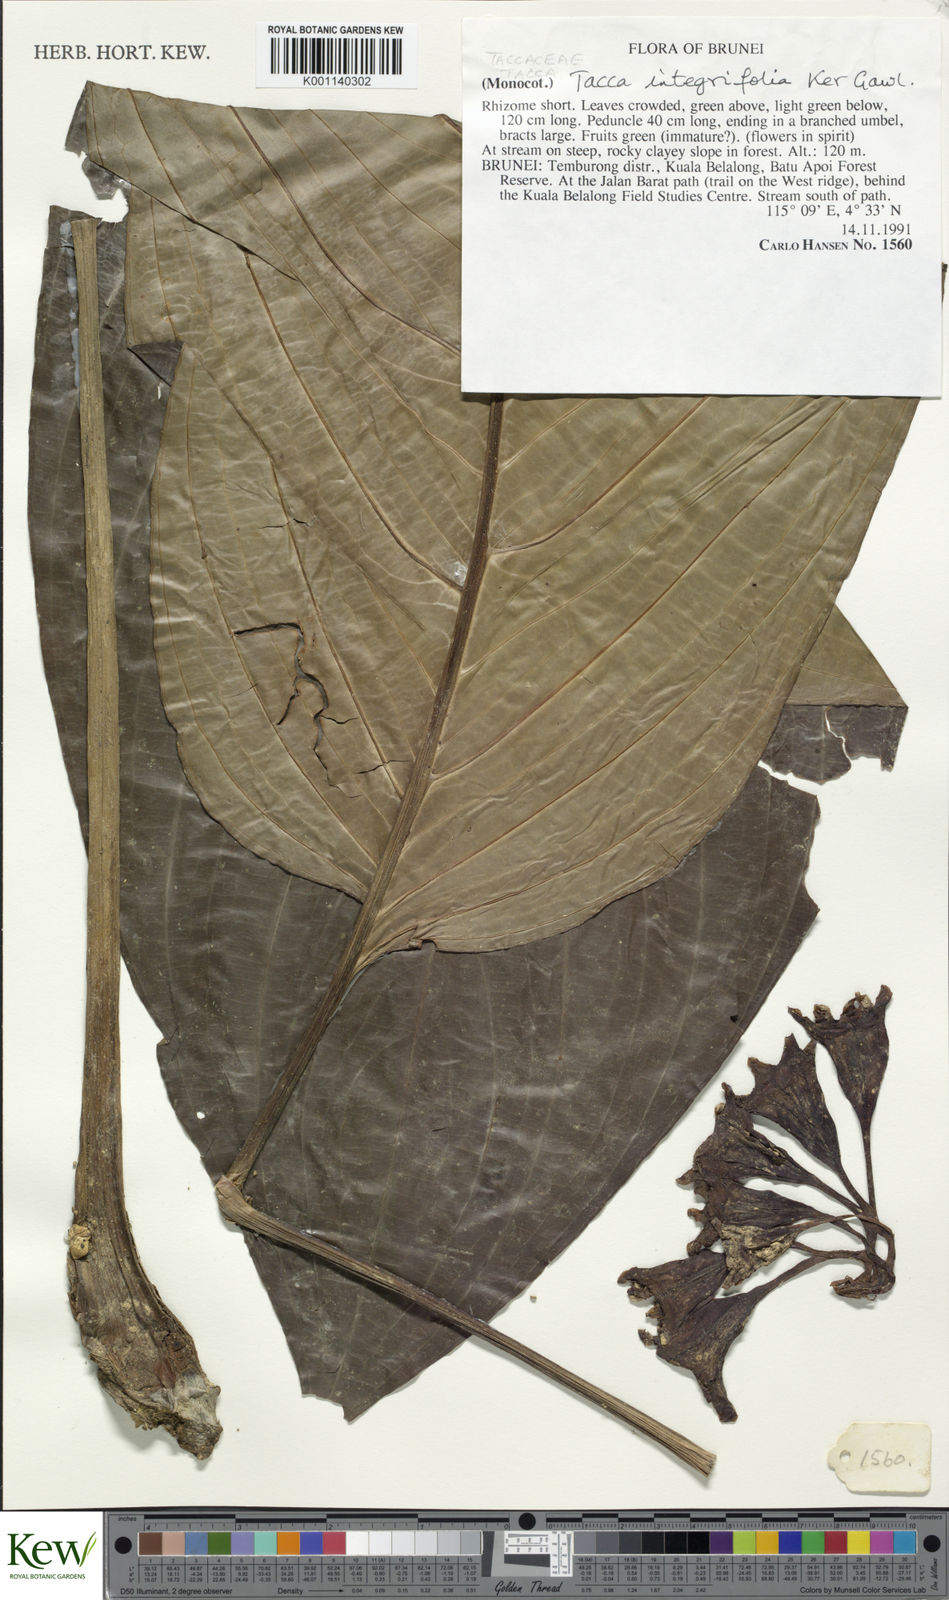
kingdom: Plantae
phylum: Tracheophyta
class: Liliopsida
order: Dioscoreales
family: Dioscoreaceae
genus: Tacca
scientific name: Tacca integrifolia
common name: Batplant
